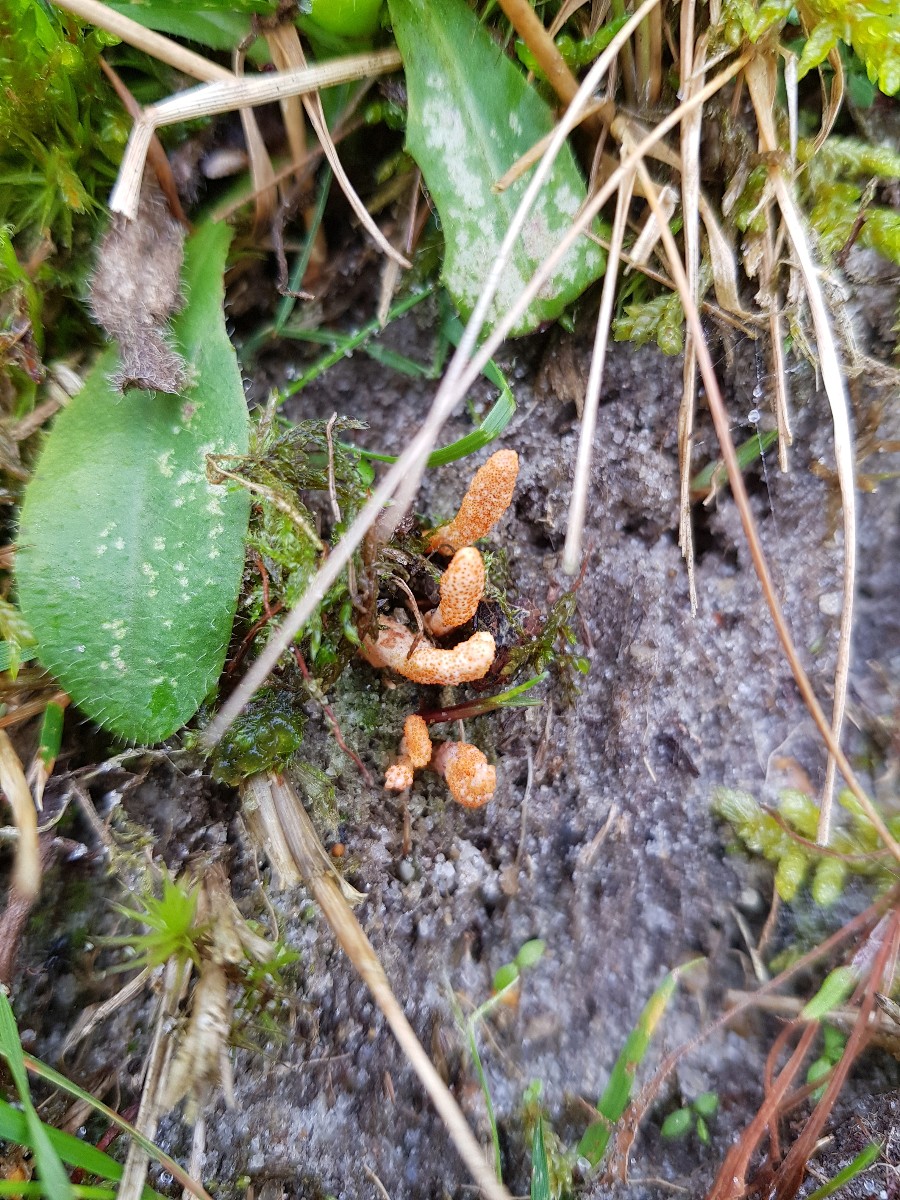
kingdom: Fungi
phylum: Ascomycota
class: Sordariomycetes
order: Hypocreales
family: Cordycipitaceae
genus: Cordyceps
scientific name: Cordyceps militaris
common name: puppe-snyltekølle
